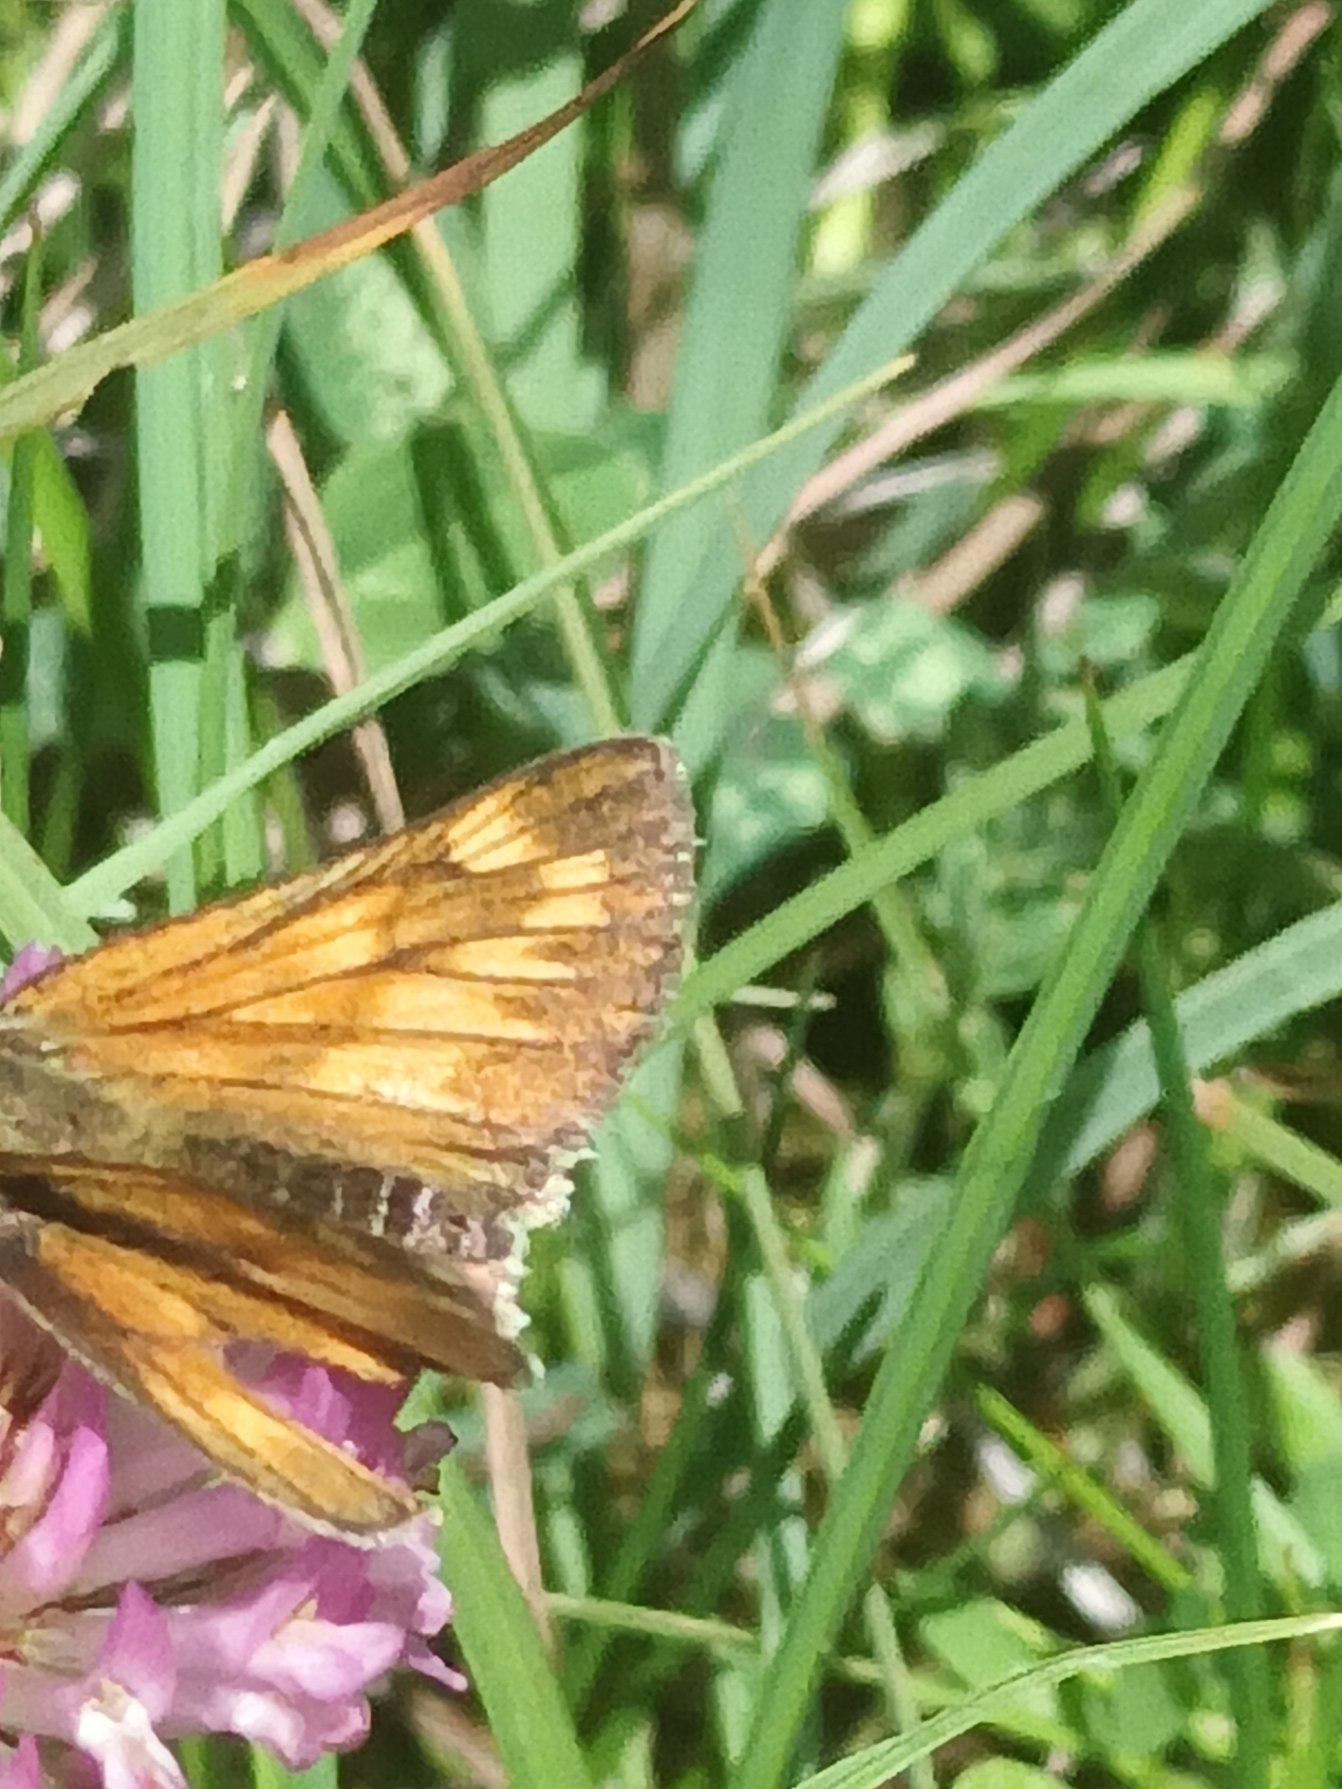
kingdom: Animalia
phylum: Arthropoda
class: Insecta
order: Lepidoptera
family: Hesperiidae
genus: Ochlodes
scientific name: Ochlodes venata
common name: Stor bredpande
